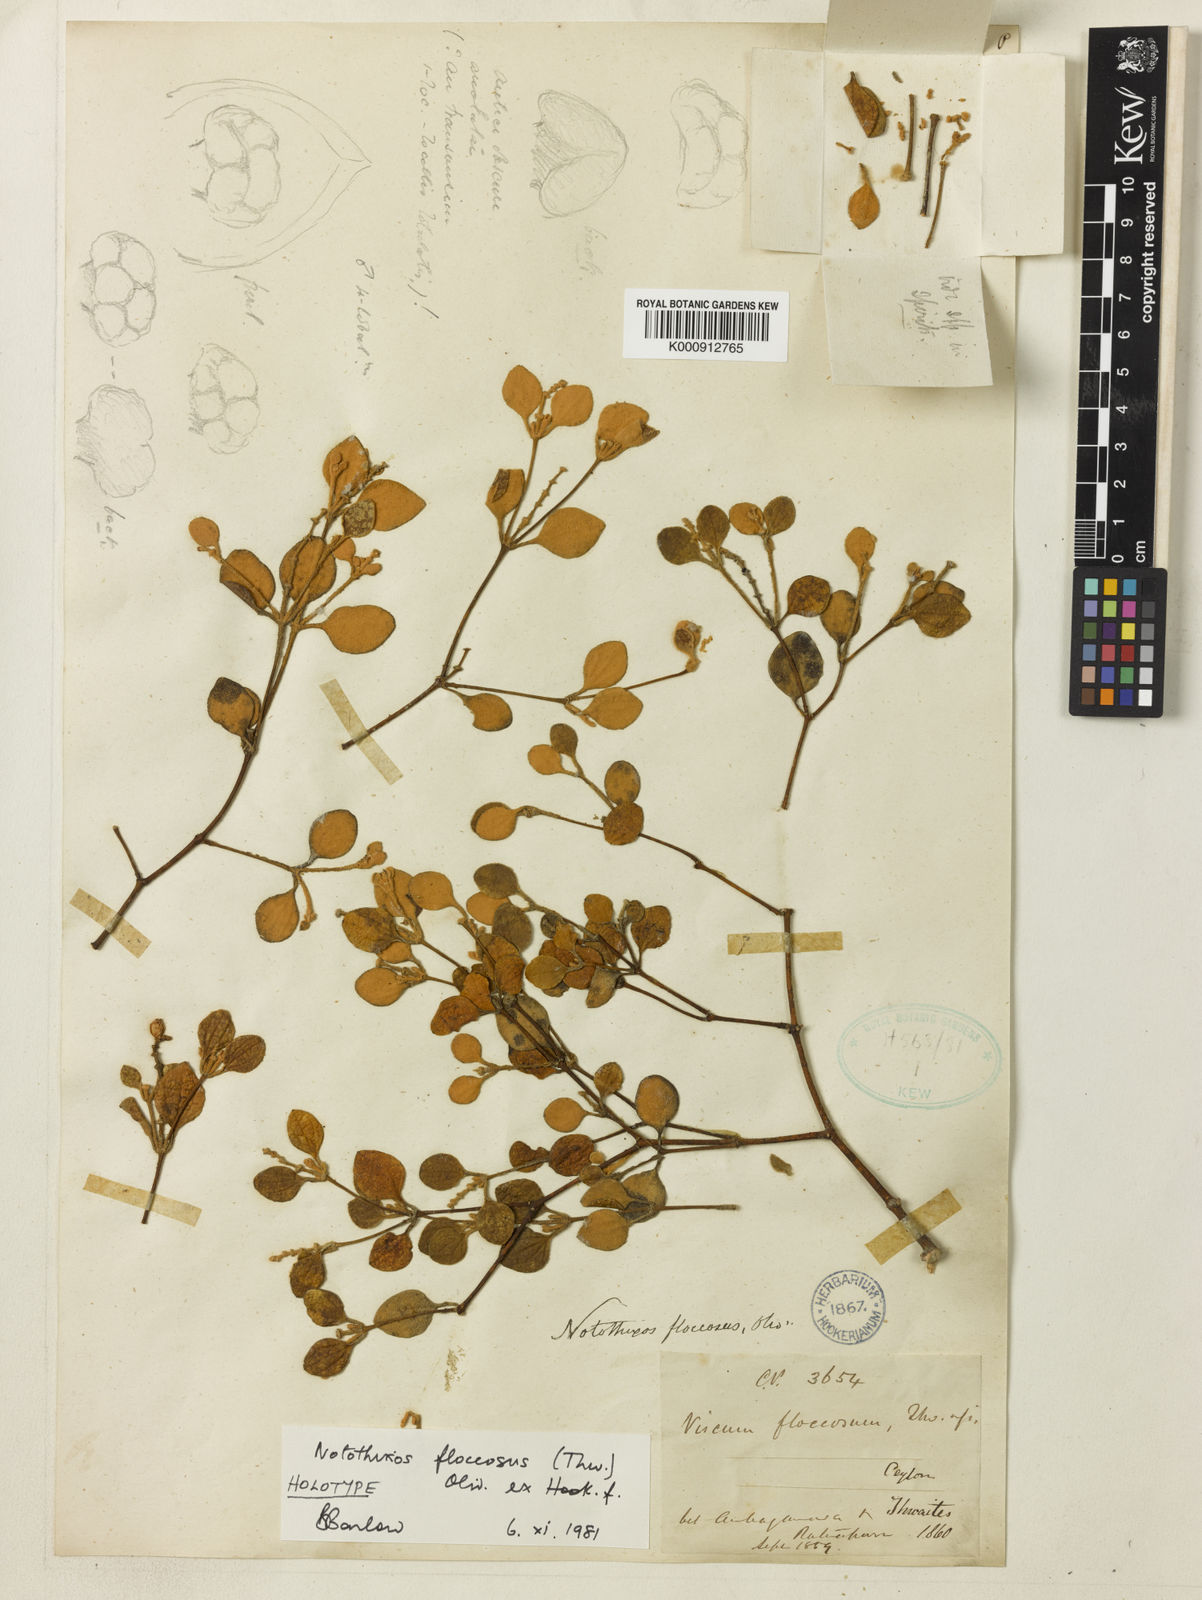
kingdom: Plantae
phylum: Tracheophyta
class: Magnoliopsida
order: Santalales
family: Viscaceae
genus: Notothixos
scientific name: Notothixos floccosus
